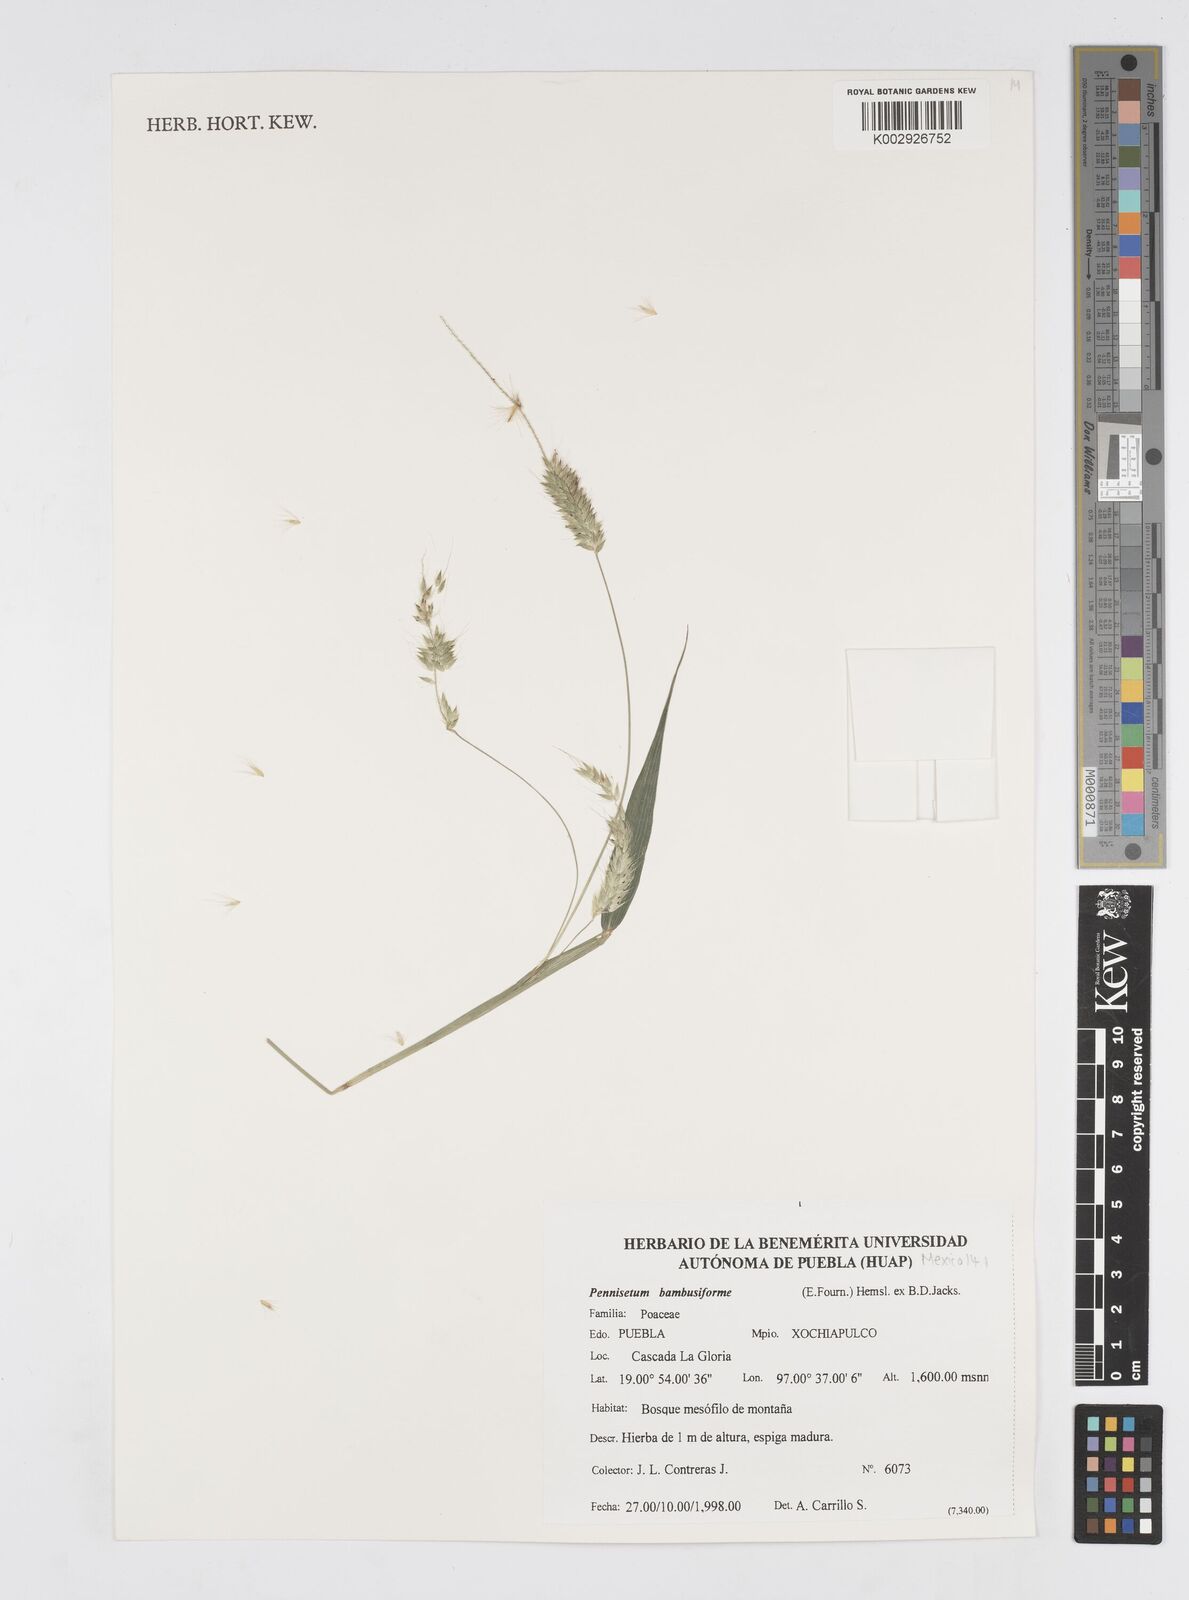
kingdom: Plantae
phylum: Tracheophyta
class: Liliopsida
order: Poales
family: Poaceae
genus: Cenchrus
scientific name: Cenchrus prolificus
